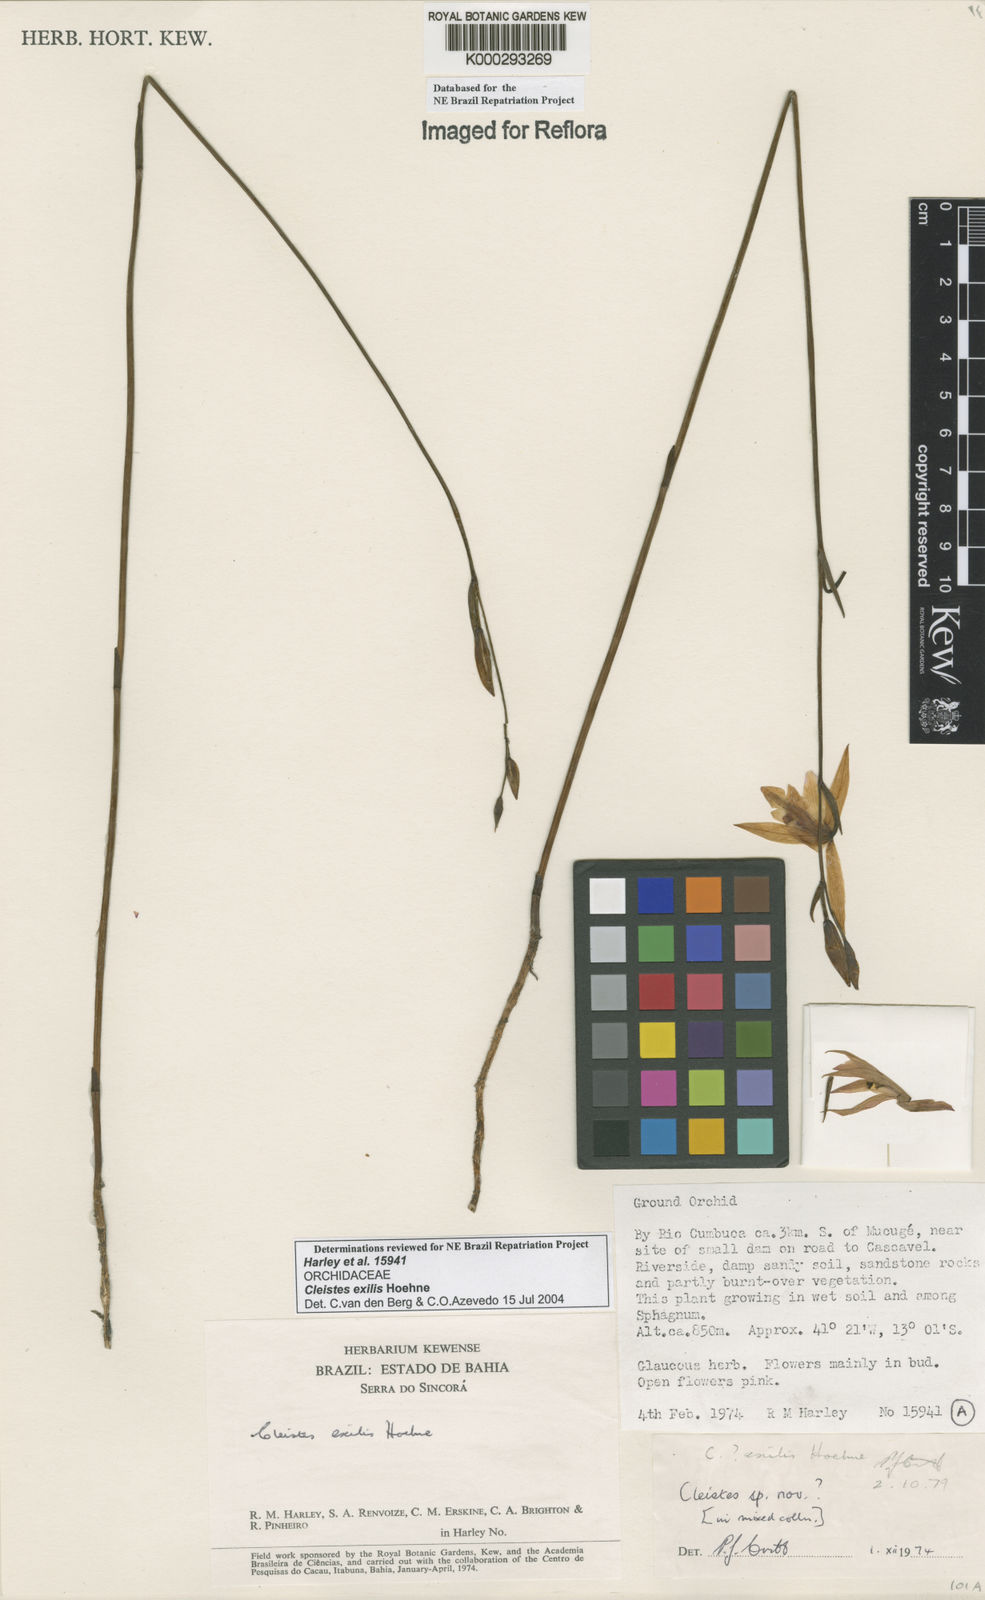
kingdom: Plantae
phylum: Tracheophyta
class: Liliopsida
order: Asparagales
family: Orchidaceae
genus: Cleistes
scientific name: Cleistes exilis
